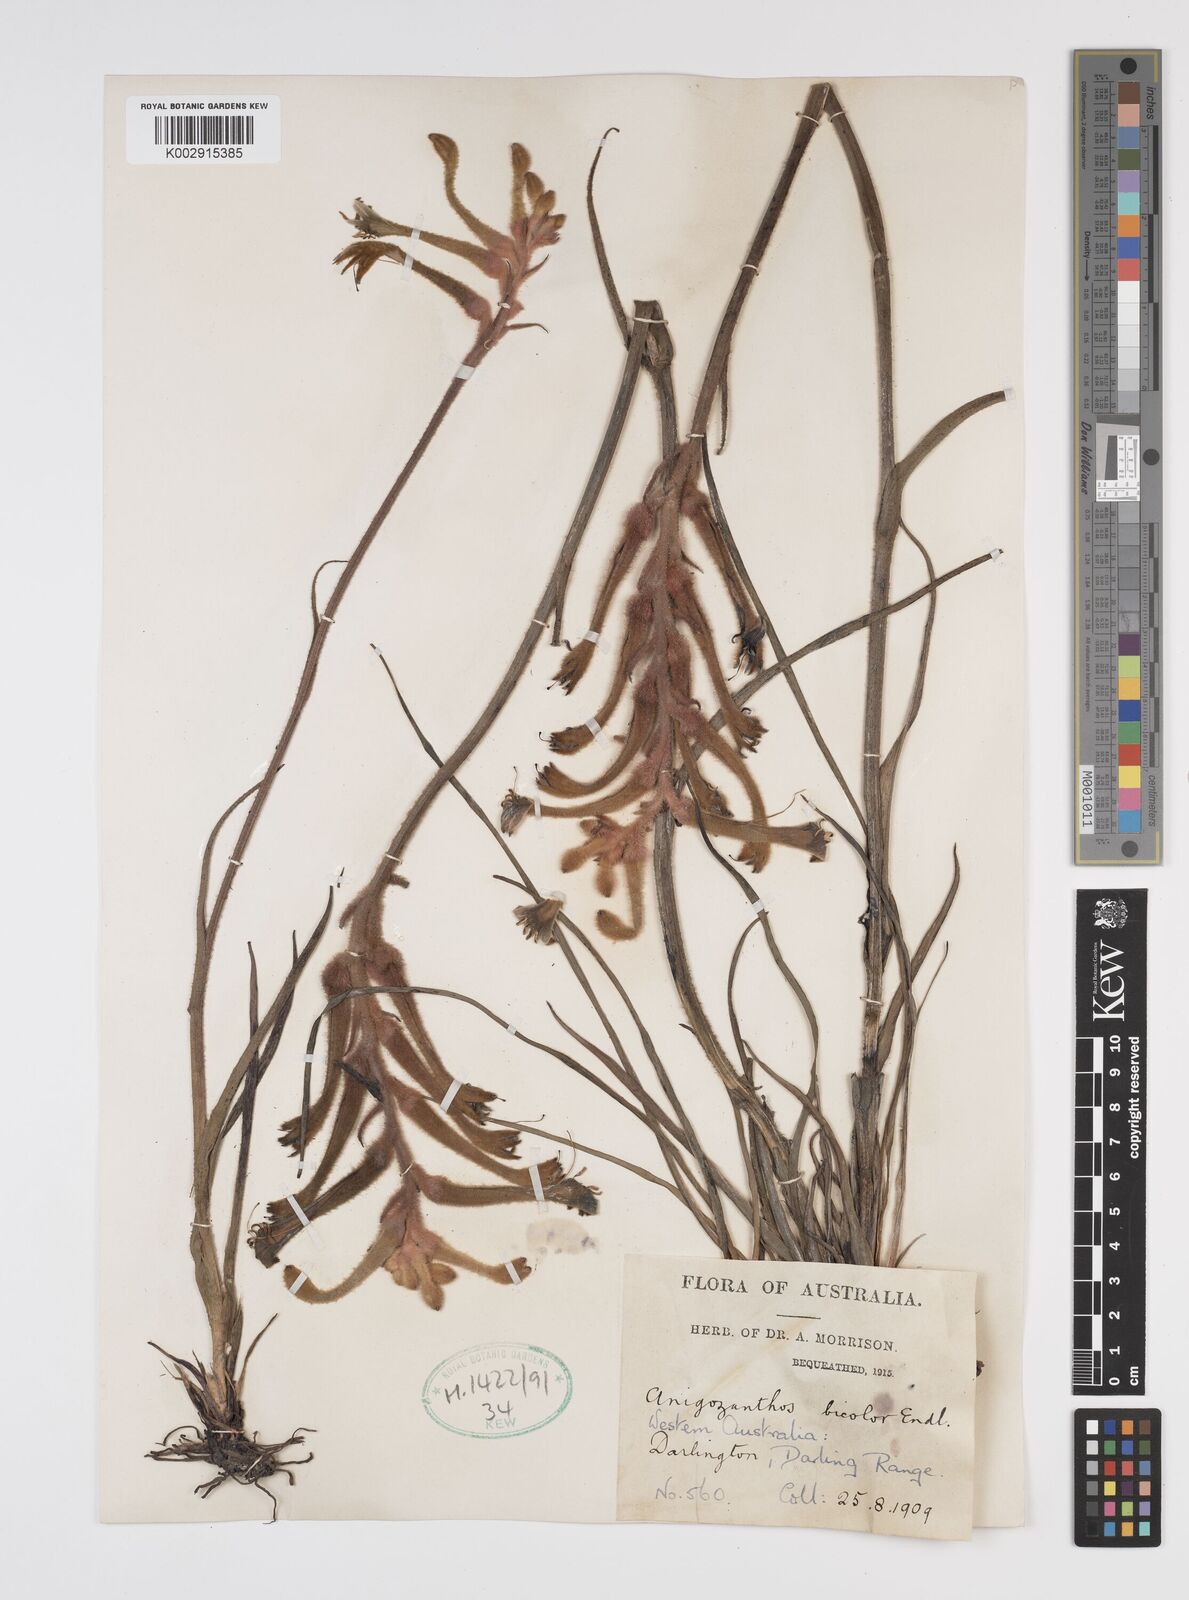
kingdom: Plantae
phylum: Tracheophyta
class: Liliopsida
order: Commelinales
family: Haemodoraceae
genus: Anigozanthos
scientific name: Anigozanthos bicolor
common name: Little kangaroo-paw
